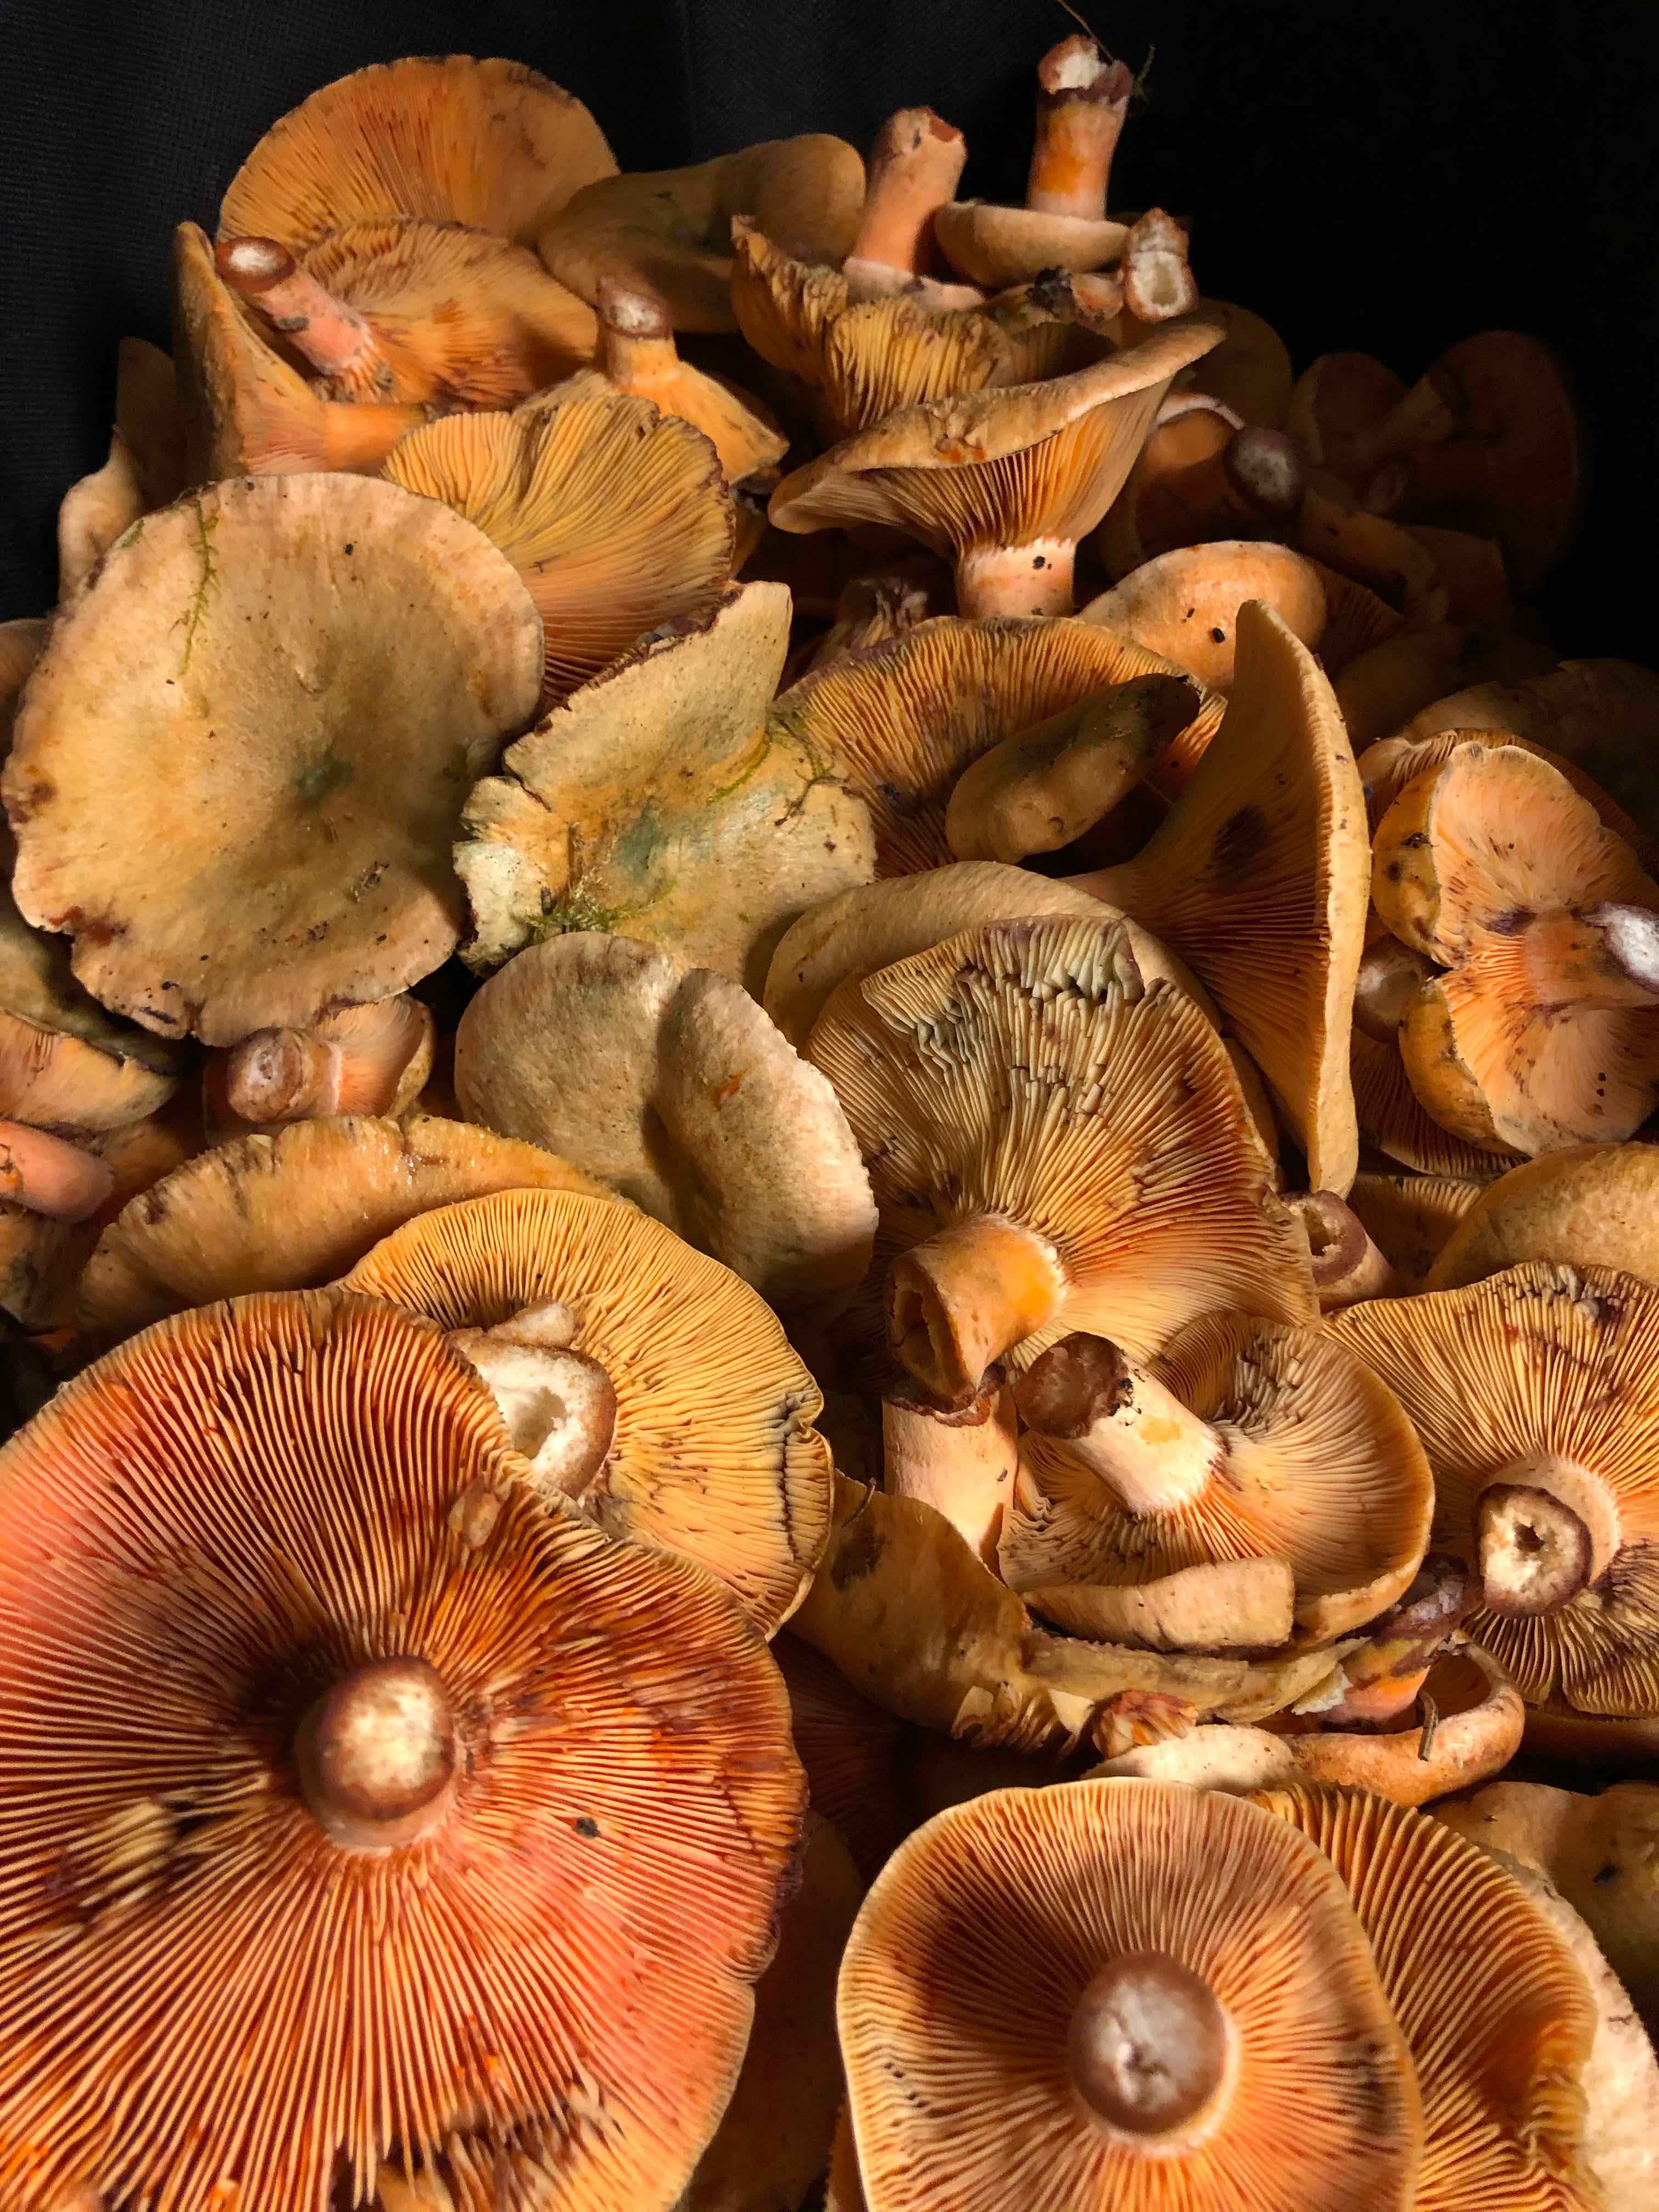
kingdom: Fungi
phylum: Basidiomycota
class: Agaricomycetes
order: Russulales
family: Russulaceae
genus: Lactarius
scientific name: Lactarius deterrimus
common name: gran-mælkehat
